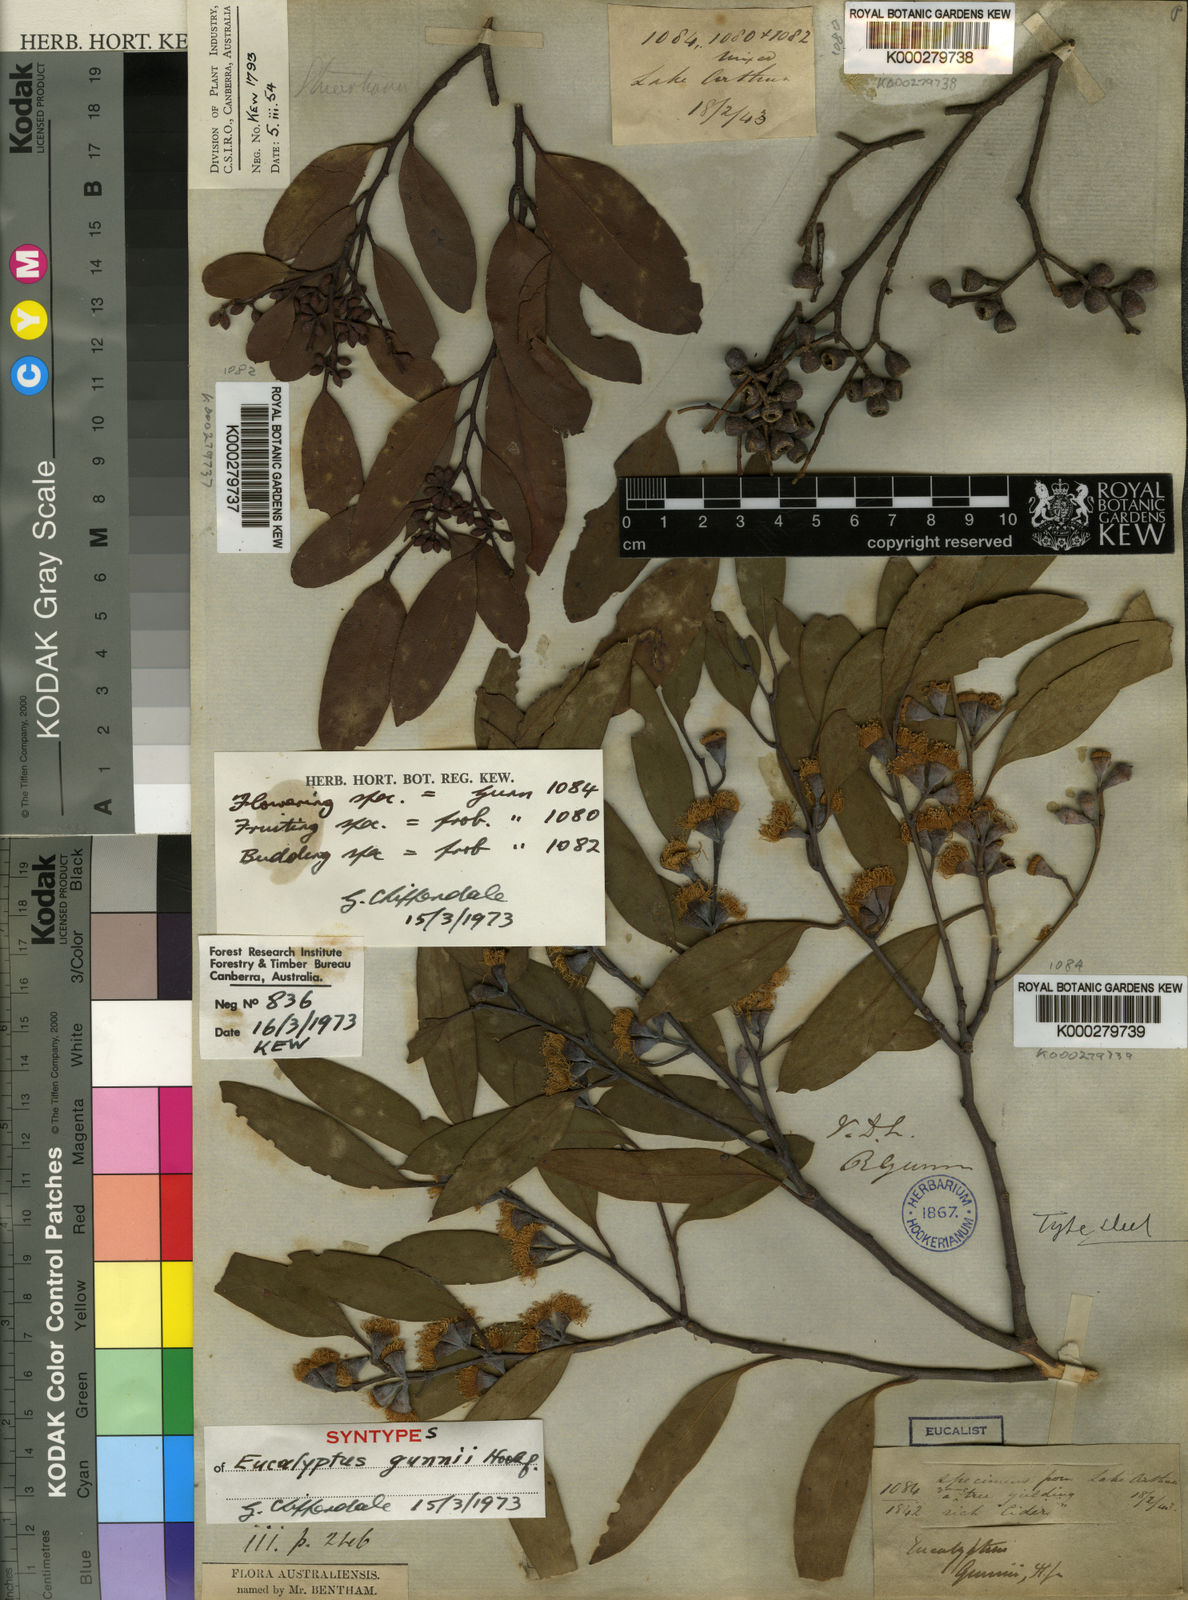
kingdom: Plantae
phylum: Tracheophyta
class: Magnoliopsida
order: Myrtales
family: Myrtaceae
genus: Eucalyptus
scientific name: Eucalyptus gunnii
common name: Cider gum
